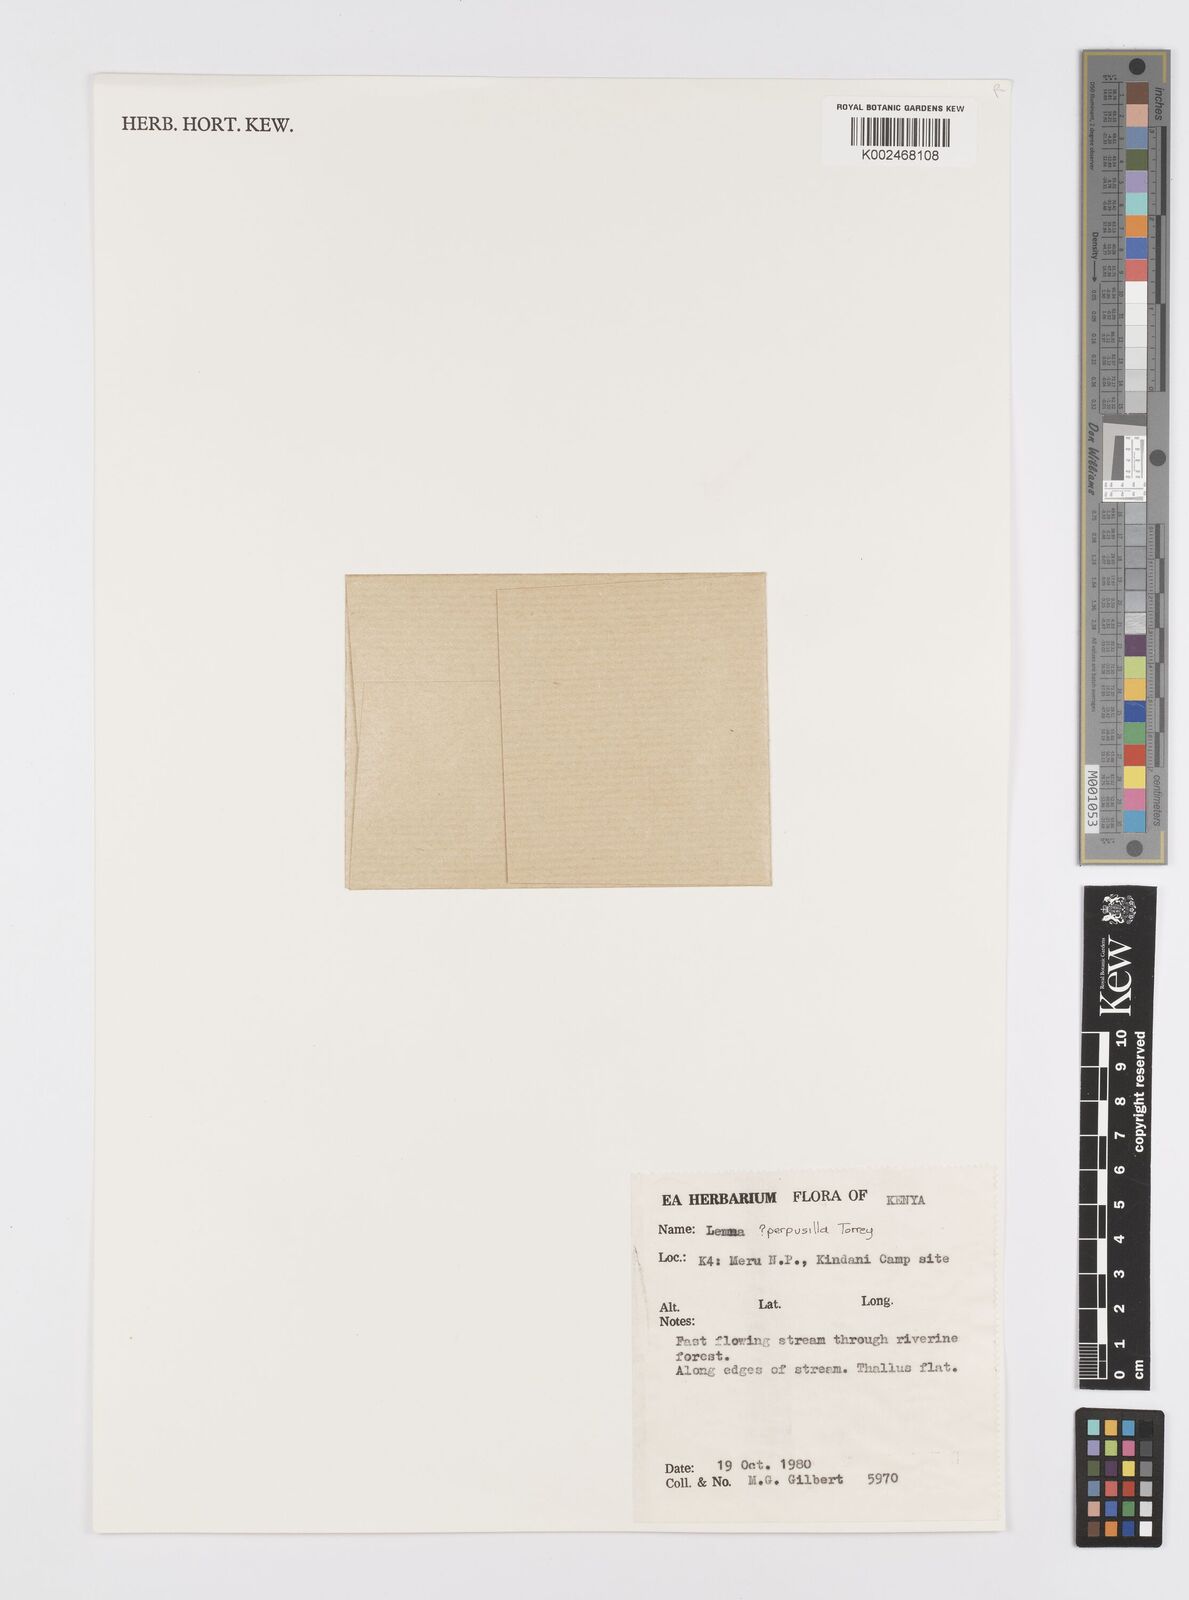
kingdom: Plantae
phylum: Tracheophyta
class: Liliopsida
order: Alismatales
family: Araceae
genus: Lemna
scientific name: Lemna perpusilla
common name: Duckweed
